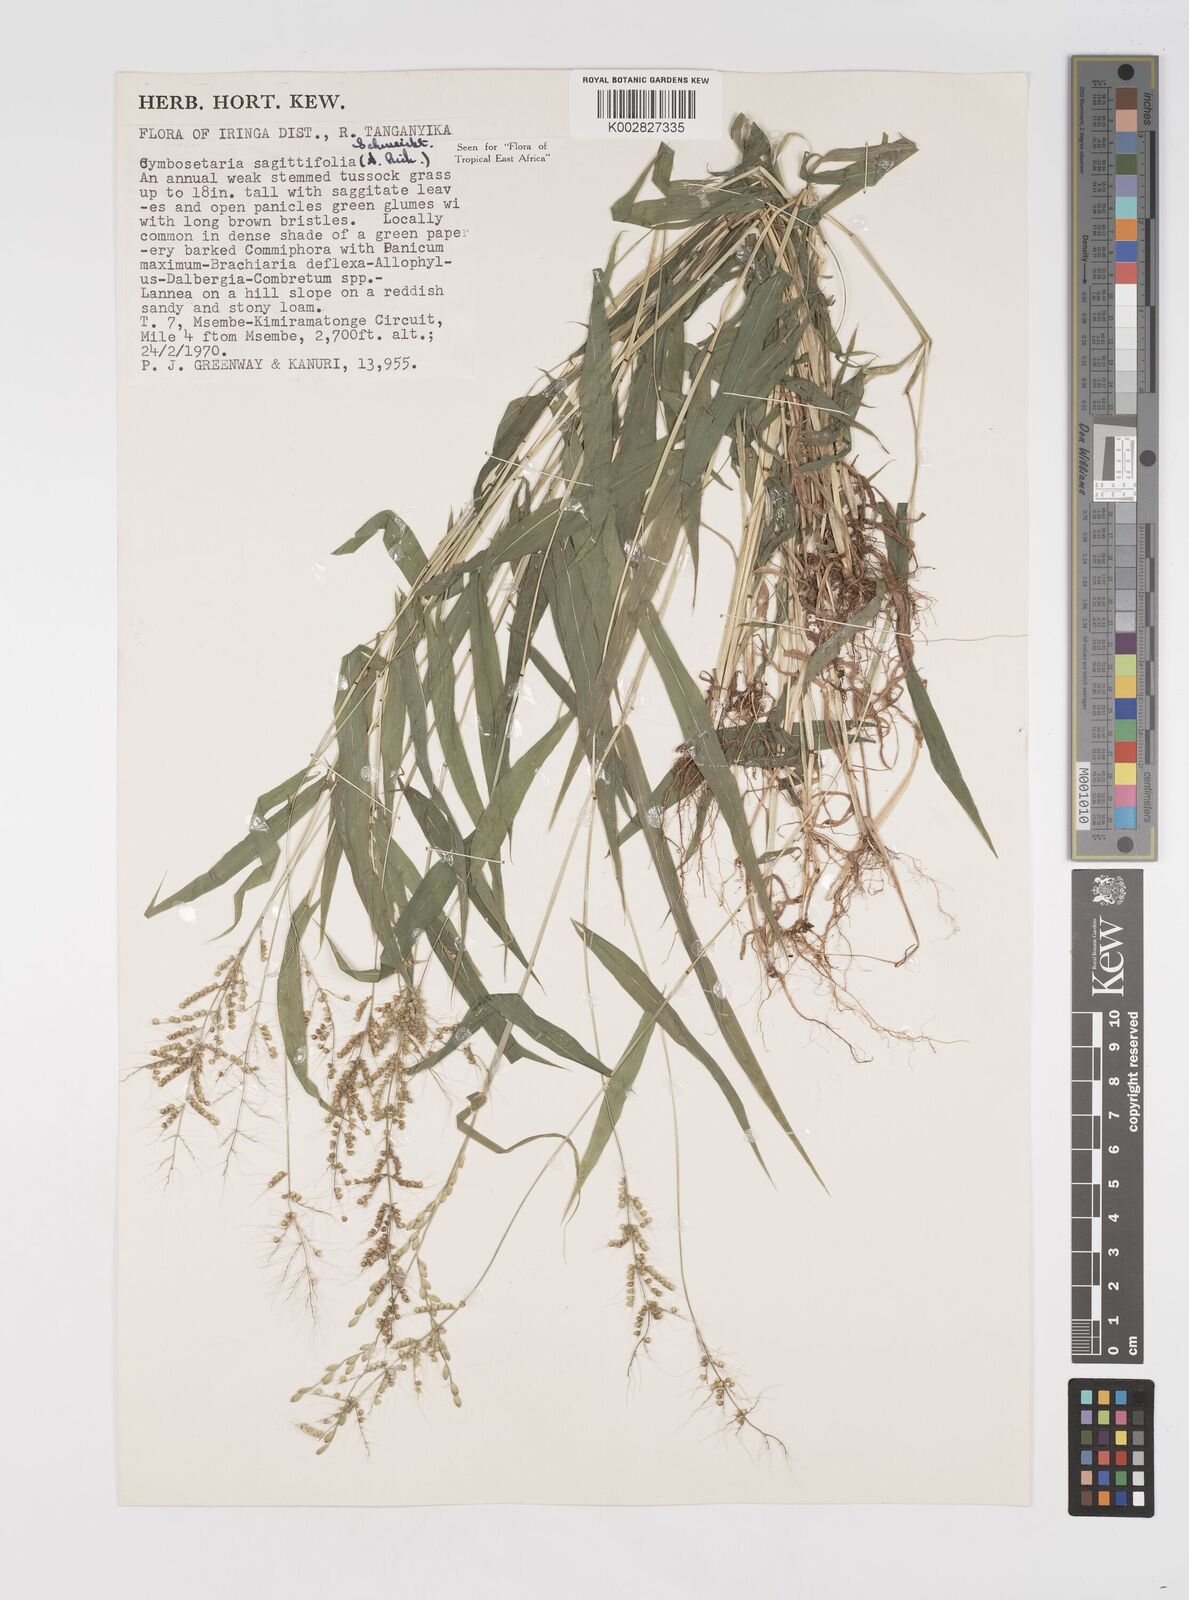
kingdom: Plantae
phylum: Tracheophyta
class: Liliopsida
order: Poales
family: Poaceae
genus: Setaria
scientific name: Setaria sagittifolia
